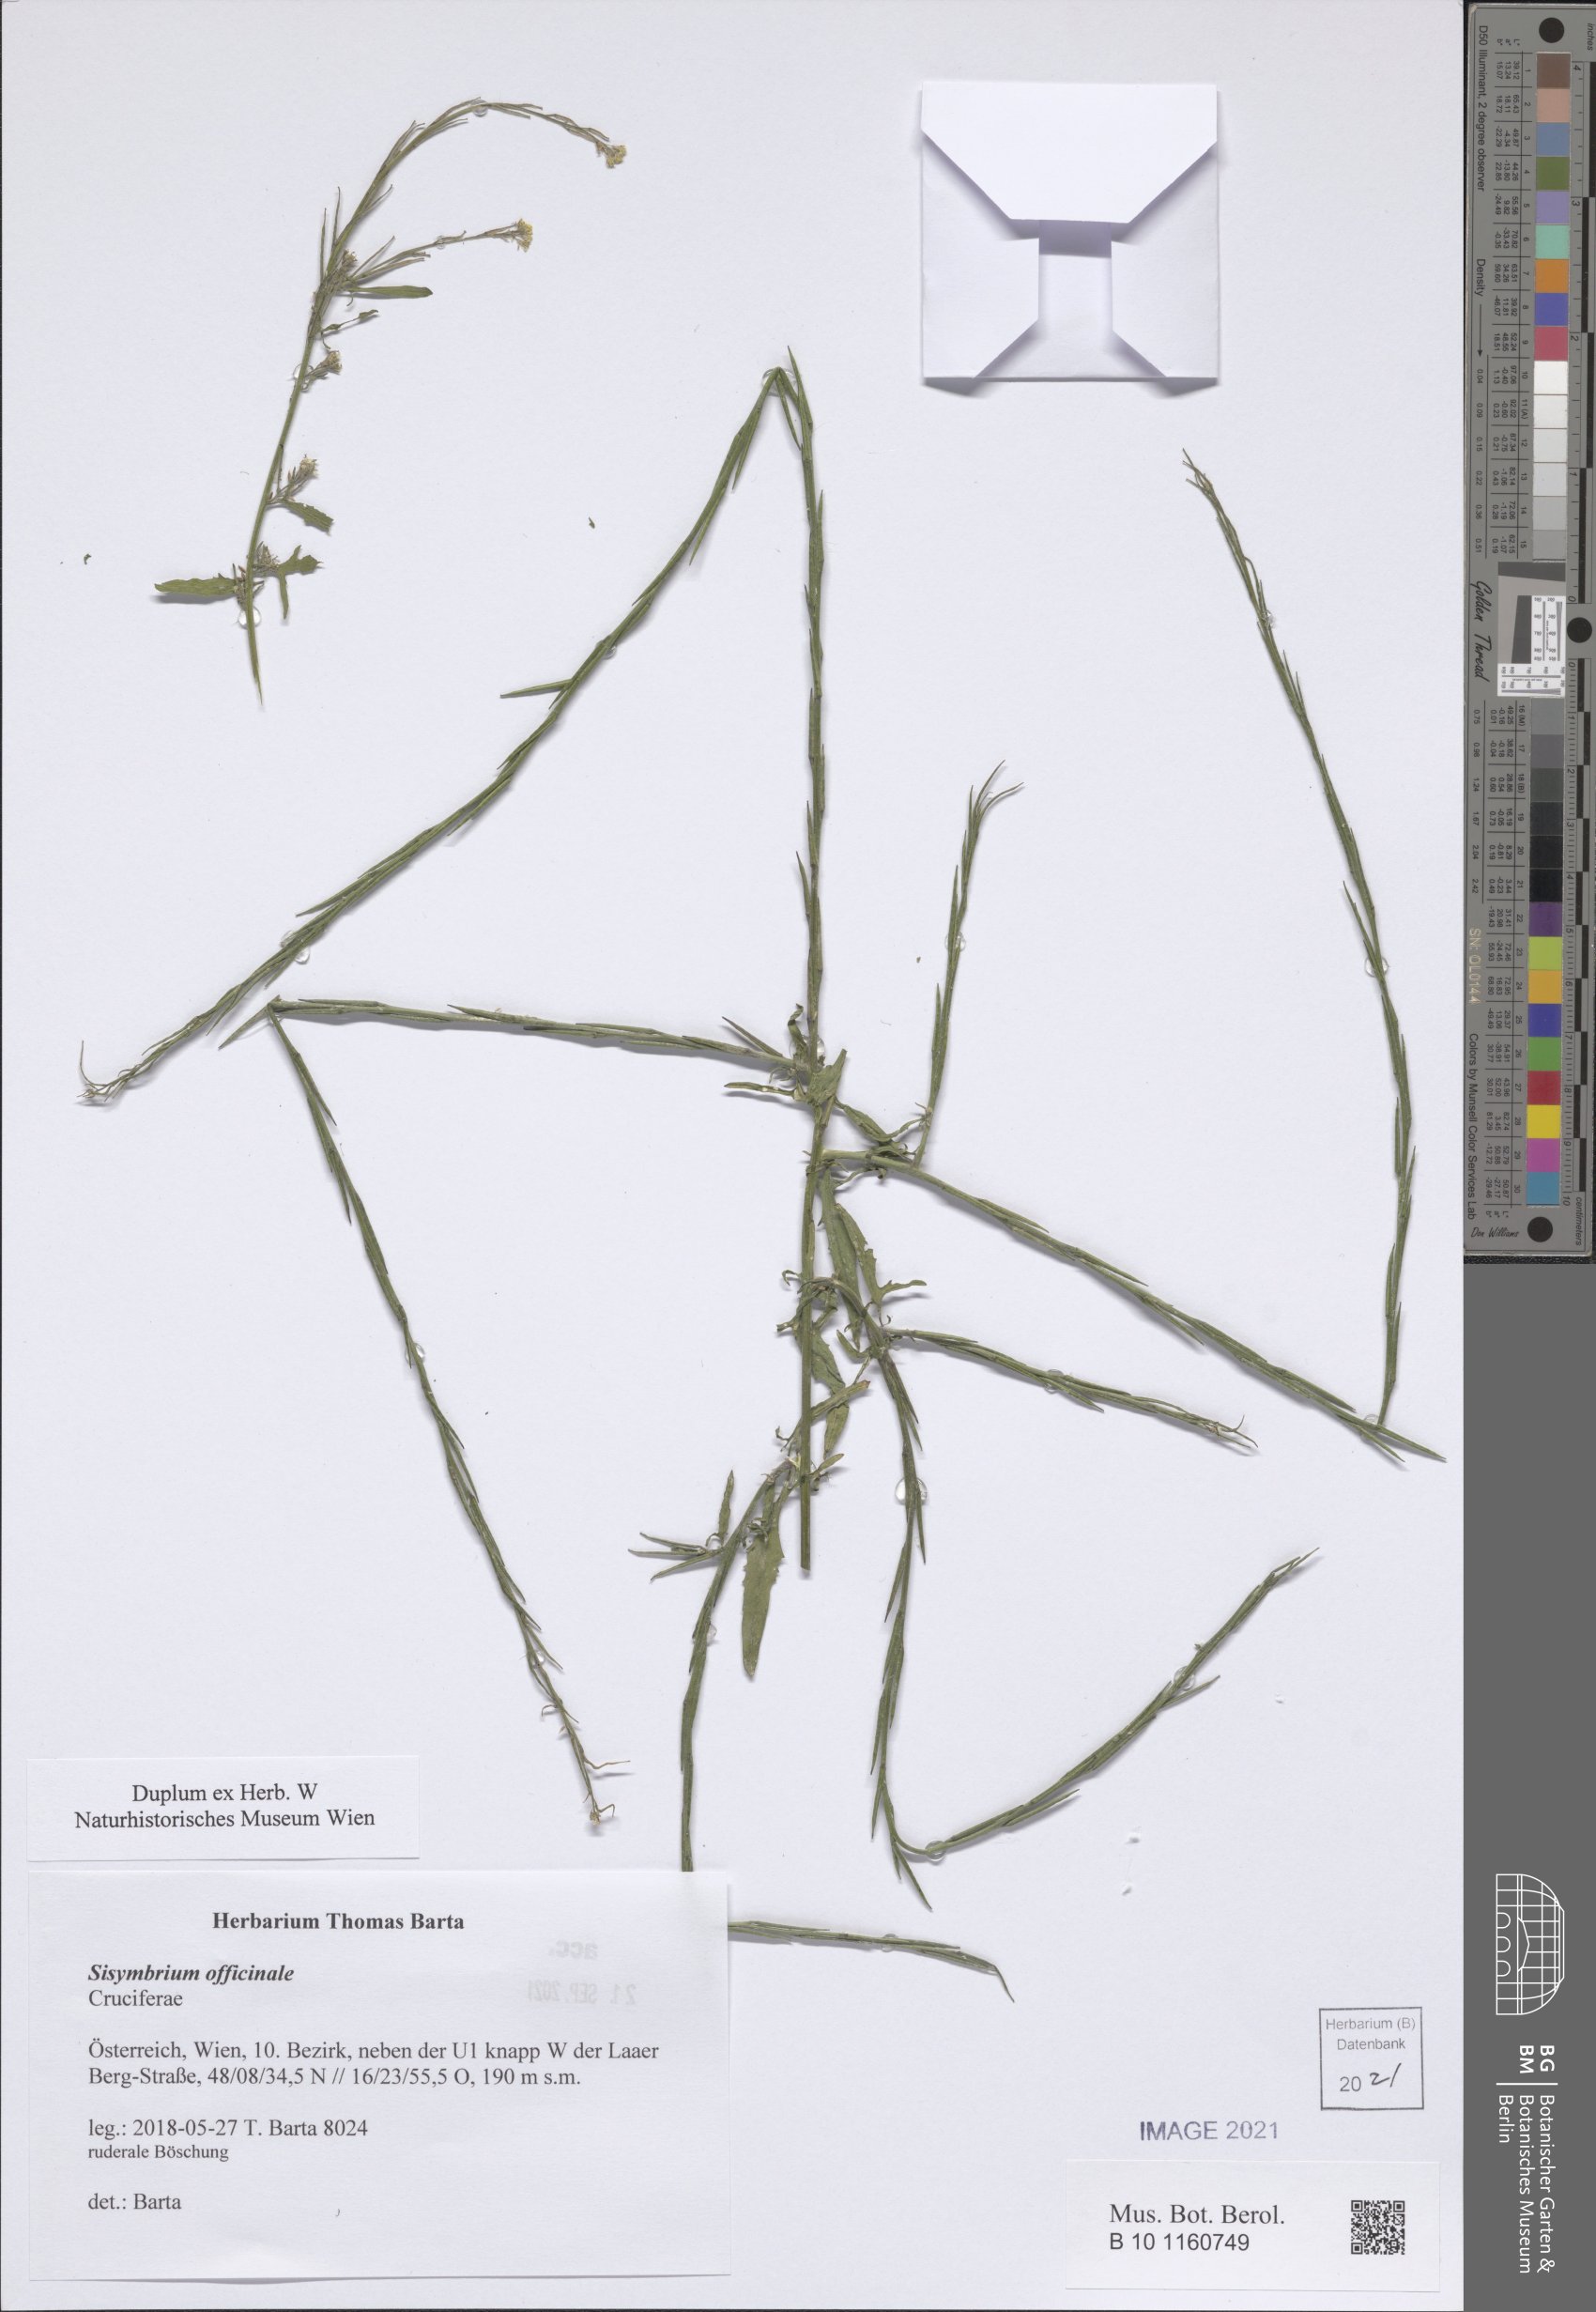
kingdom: Plantae
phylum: Tracheophyta
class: Magnoliopsida
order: Brassicales
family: Brassicaceae
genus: Sisymbrium
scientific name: Sisymbrium officinale
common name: Hedge mustard
